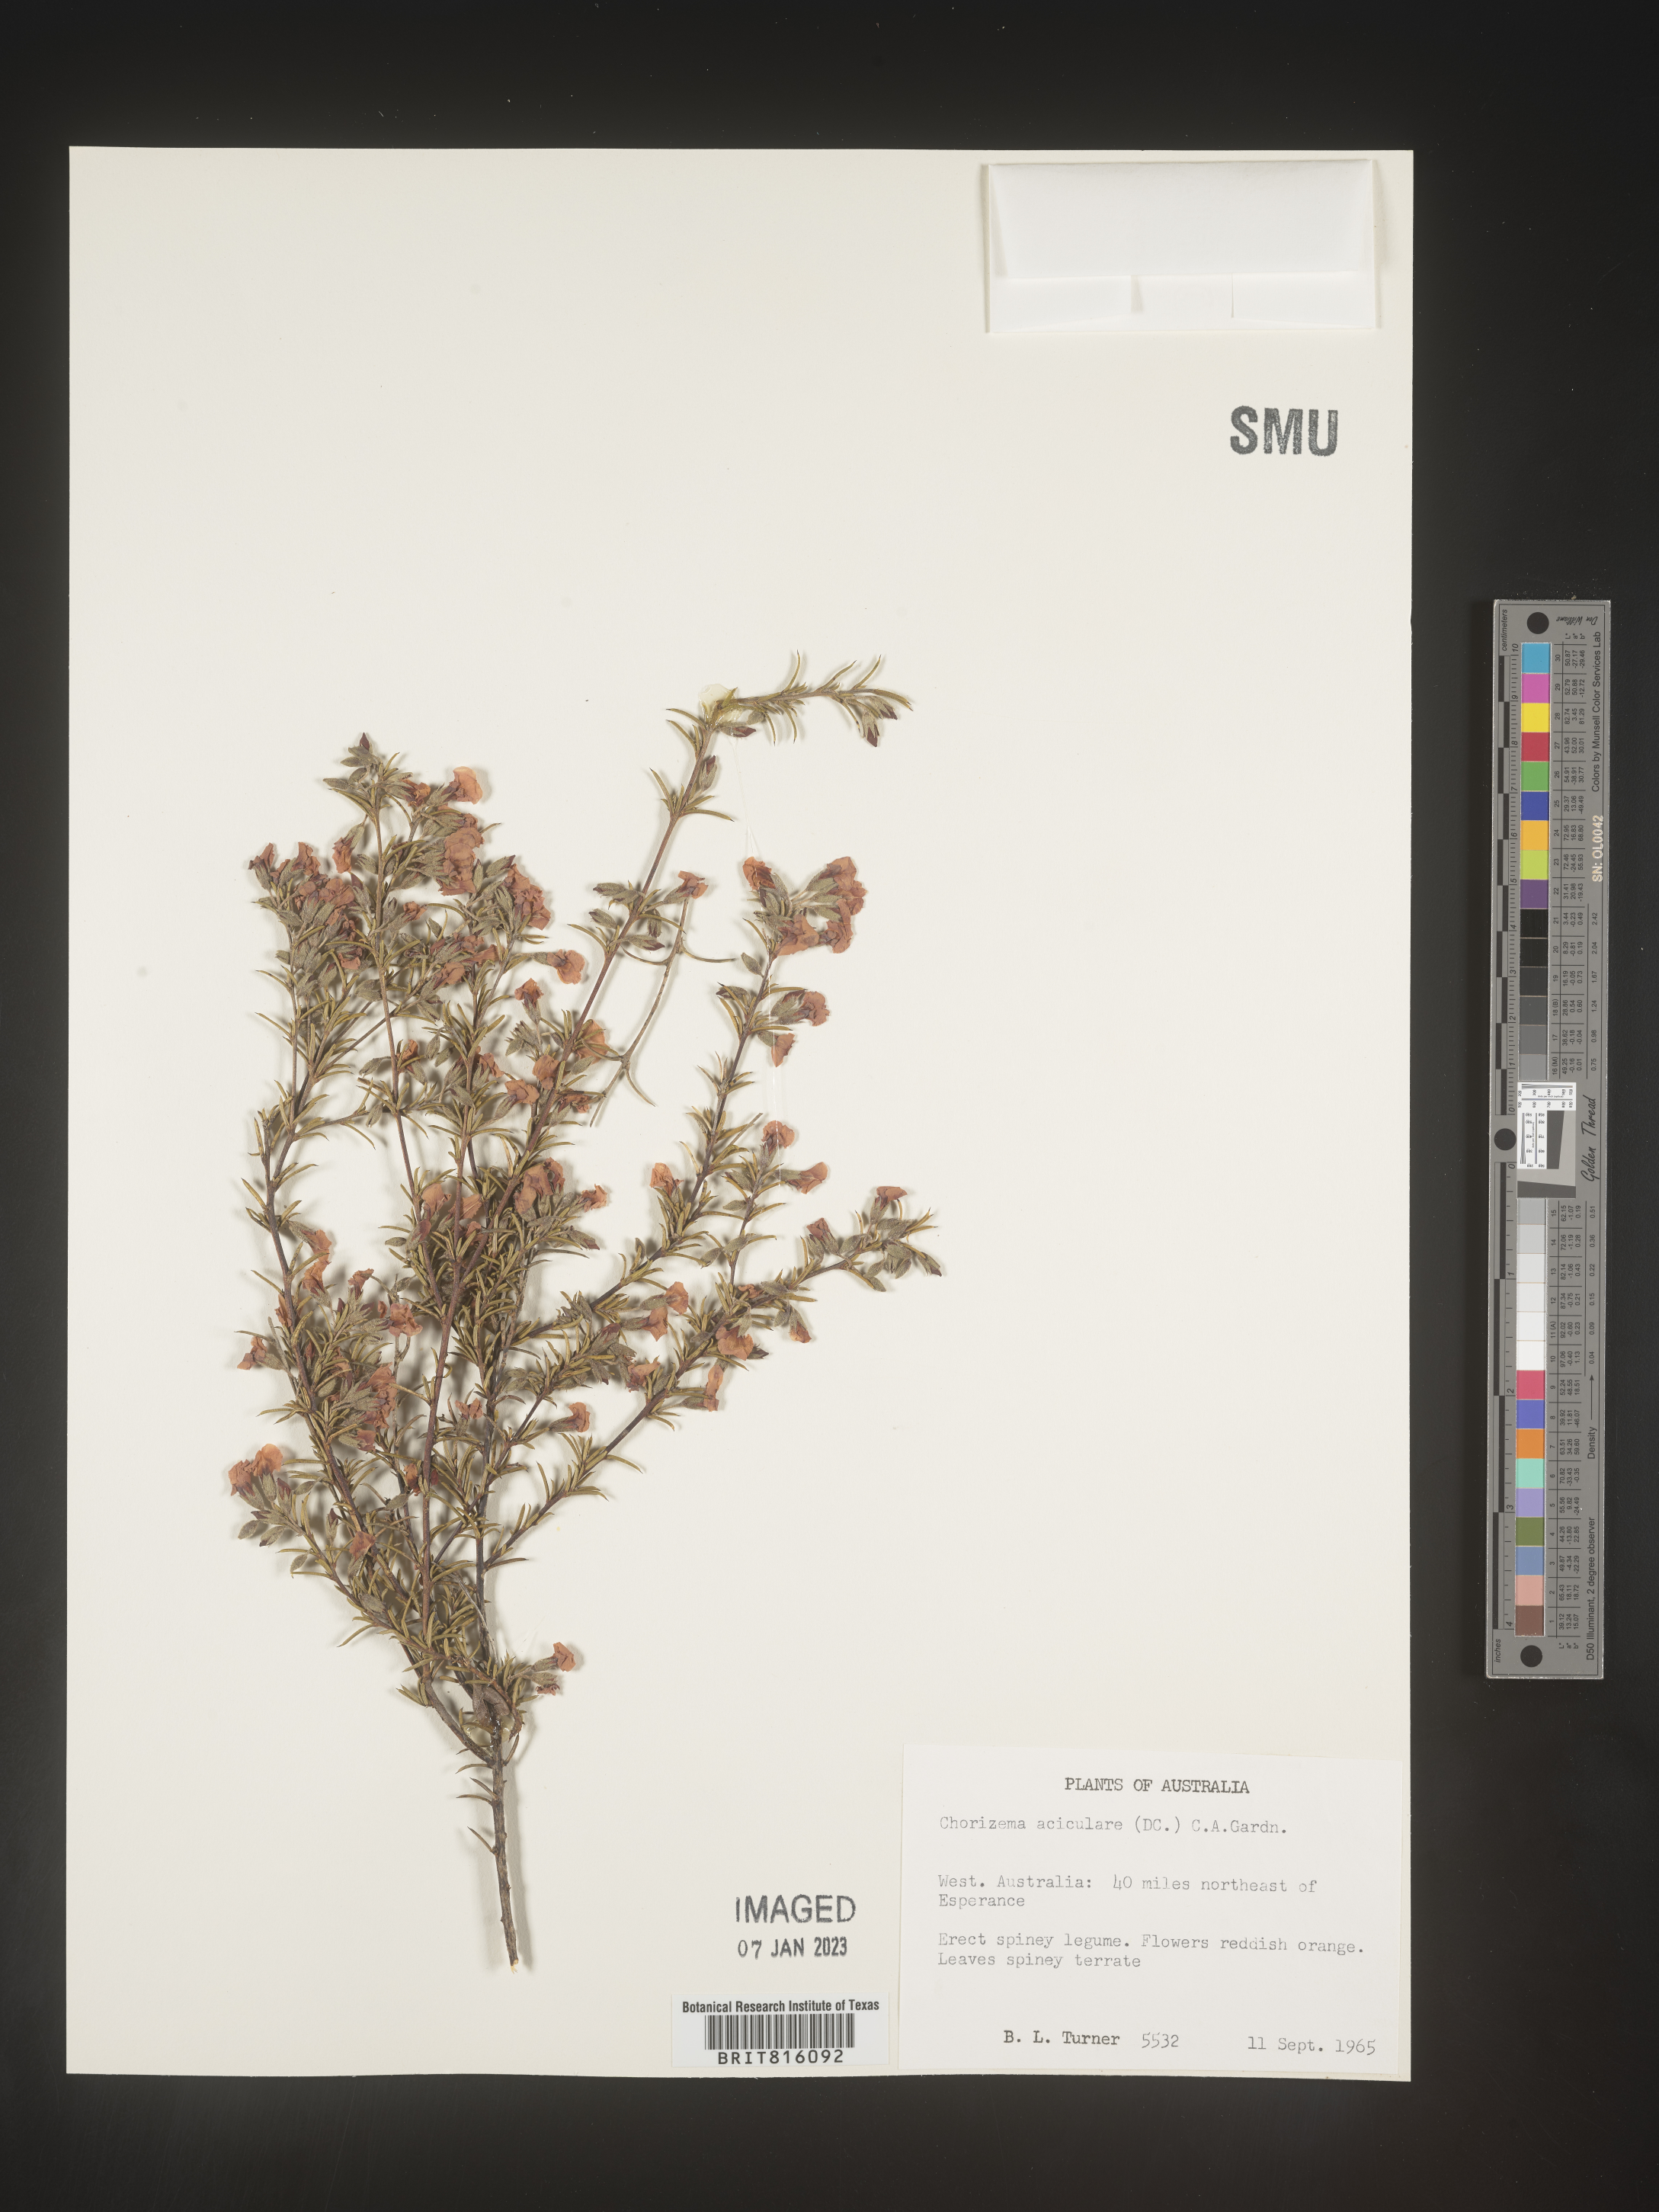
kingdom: Plantae
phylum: Tracheophyta
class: Magnoliopsida
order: Fabales
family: Fabaceae
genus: Chorizema
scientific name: Chorizema
